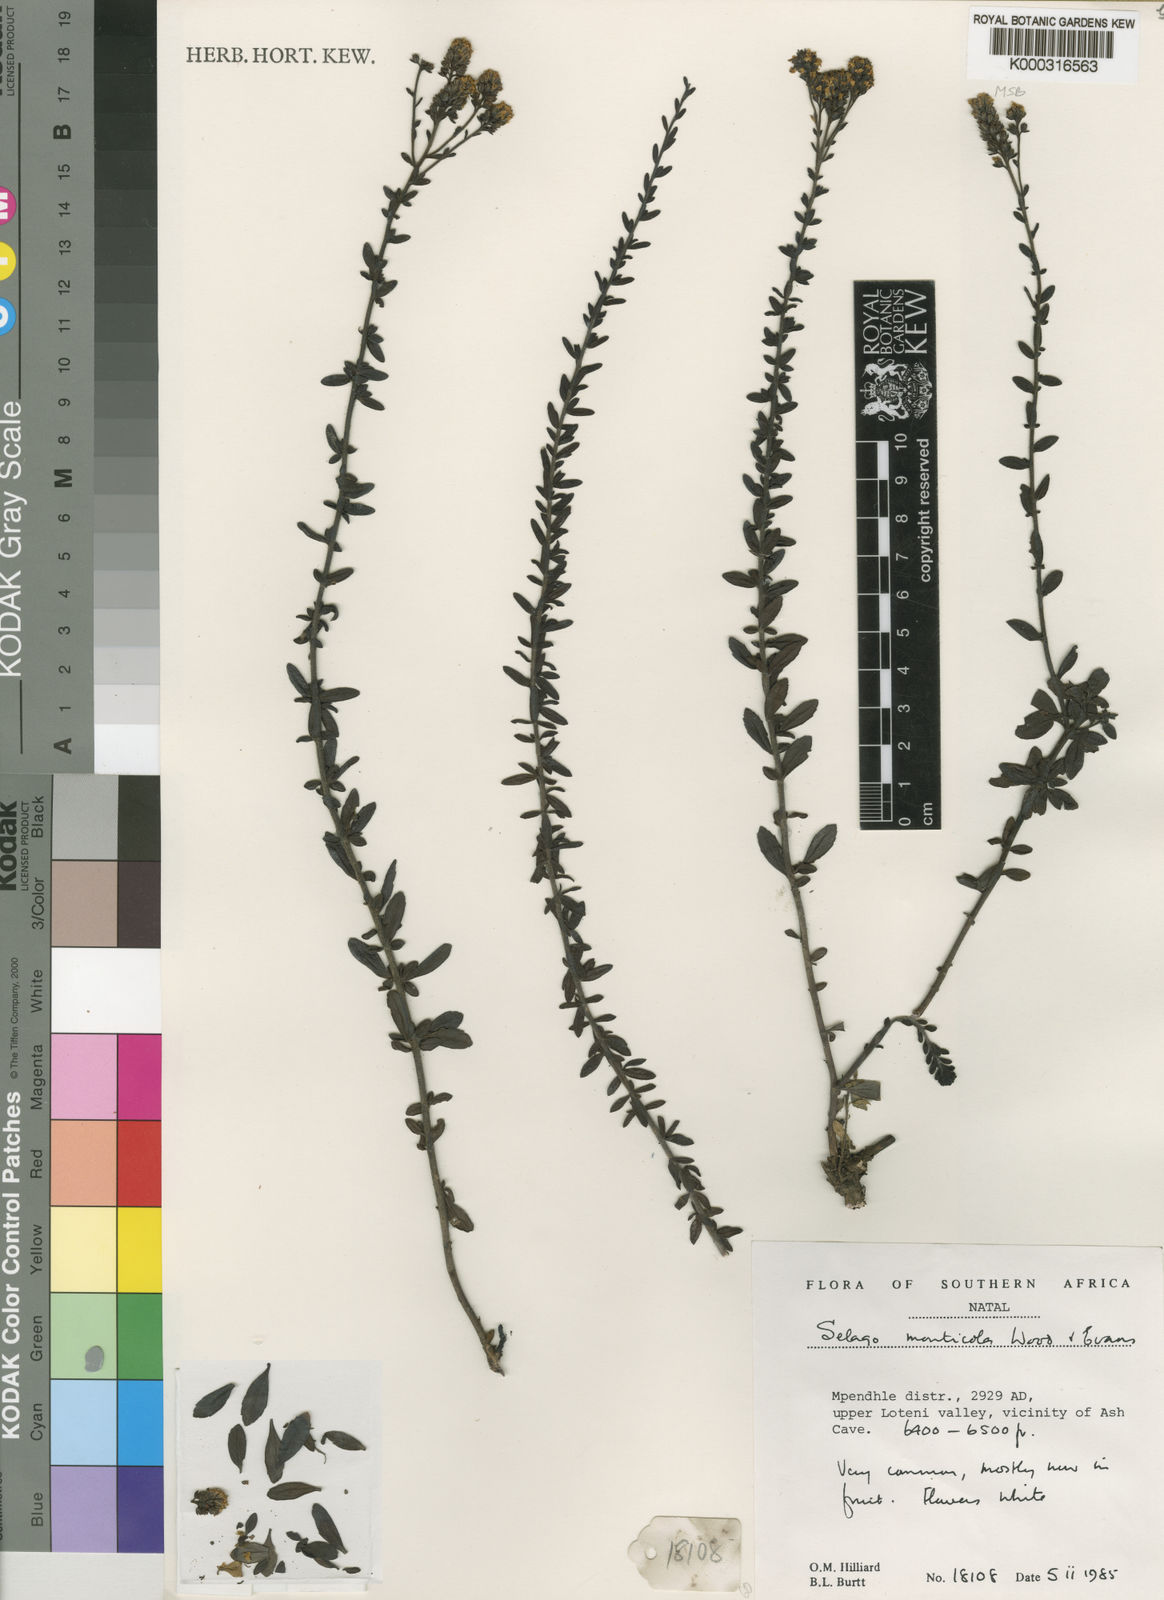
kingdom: Plantae
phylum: Tracheophyta
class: Magnoliopsida
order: Lamiales
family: Scrophulariaceae
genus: Selago
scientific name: Selago monticola
